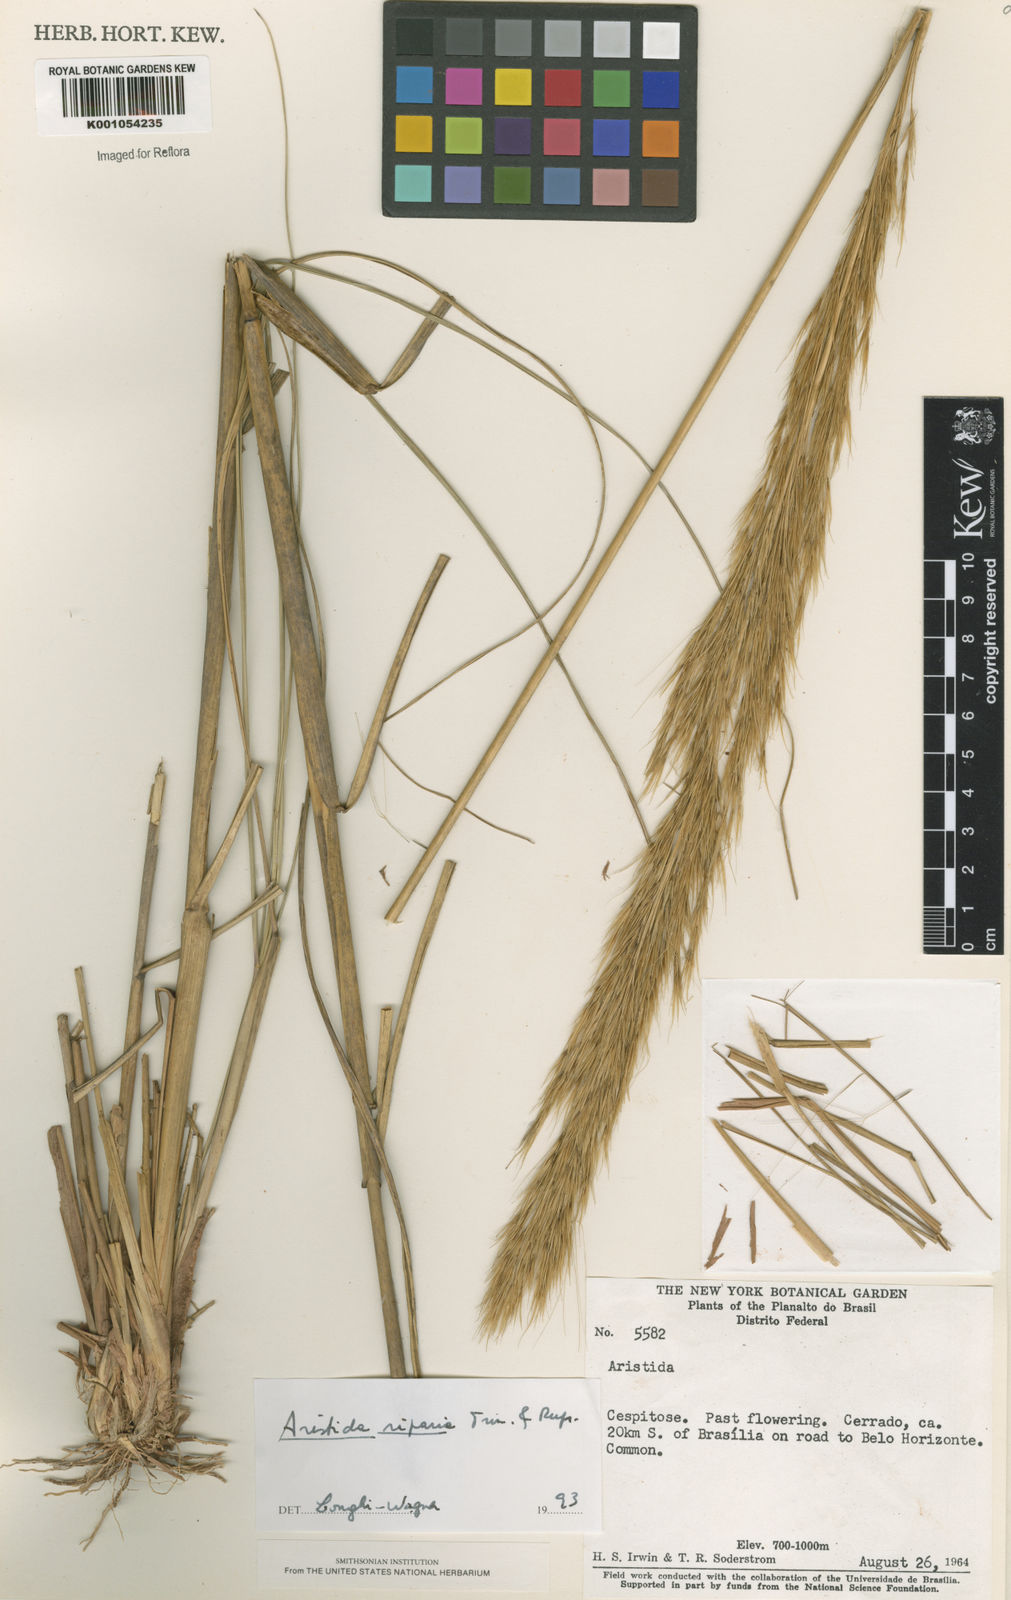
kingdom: Plantae
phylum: Tracheophyta
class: Liliopsida
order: Poales
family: Poaceae
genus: Aristida
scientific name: Aristida riparia
